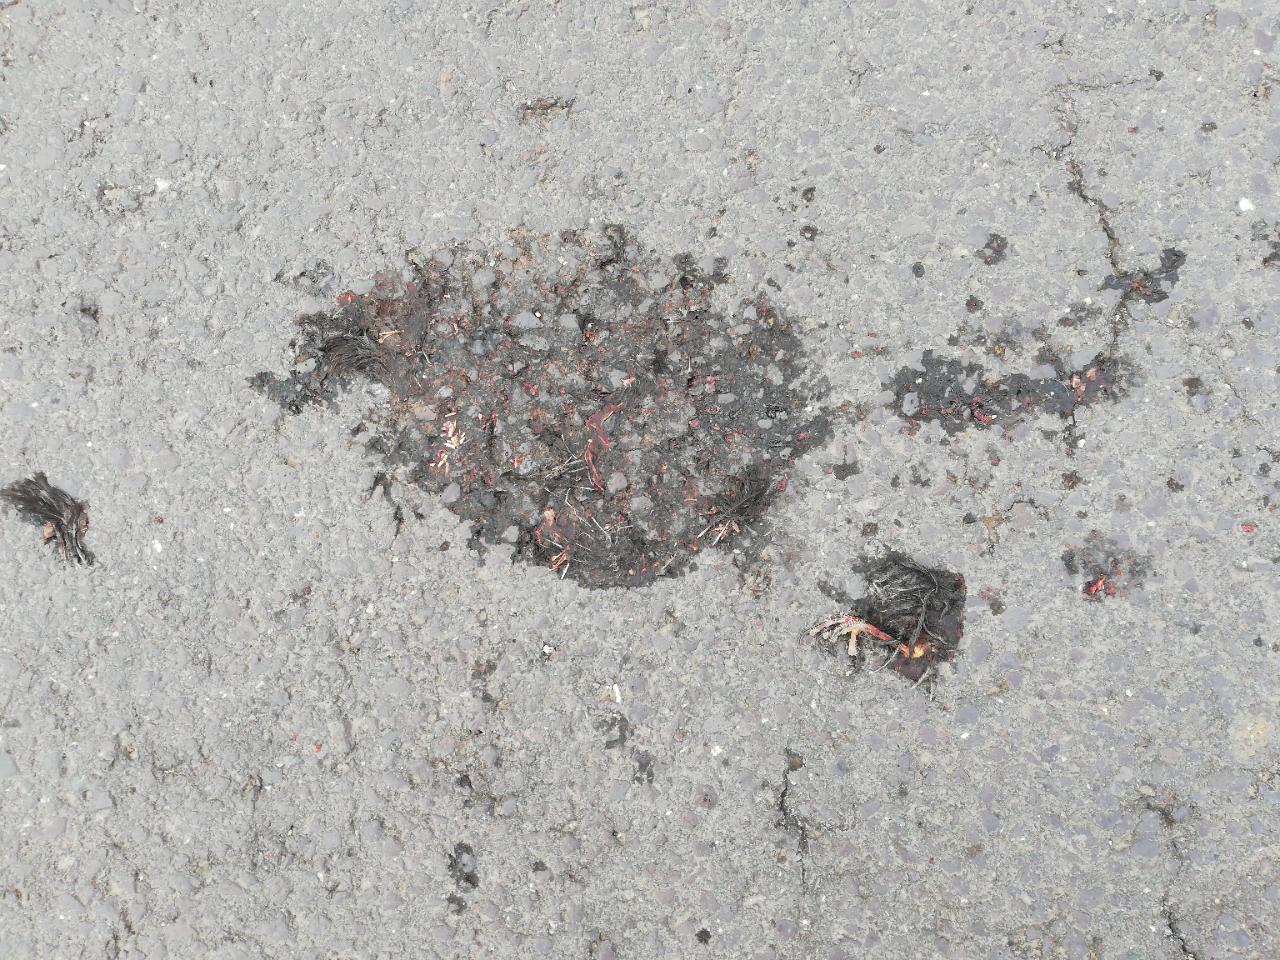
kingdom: Animalia
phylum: Chordata
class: Aves
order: Passeriformes
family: Turdidae
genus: Turdus
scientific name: Turdus merula
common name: Common blackbird
